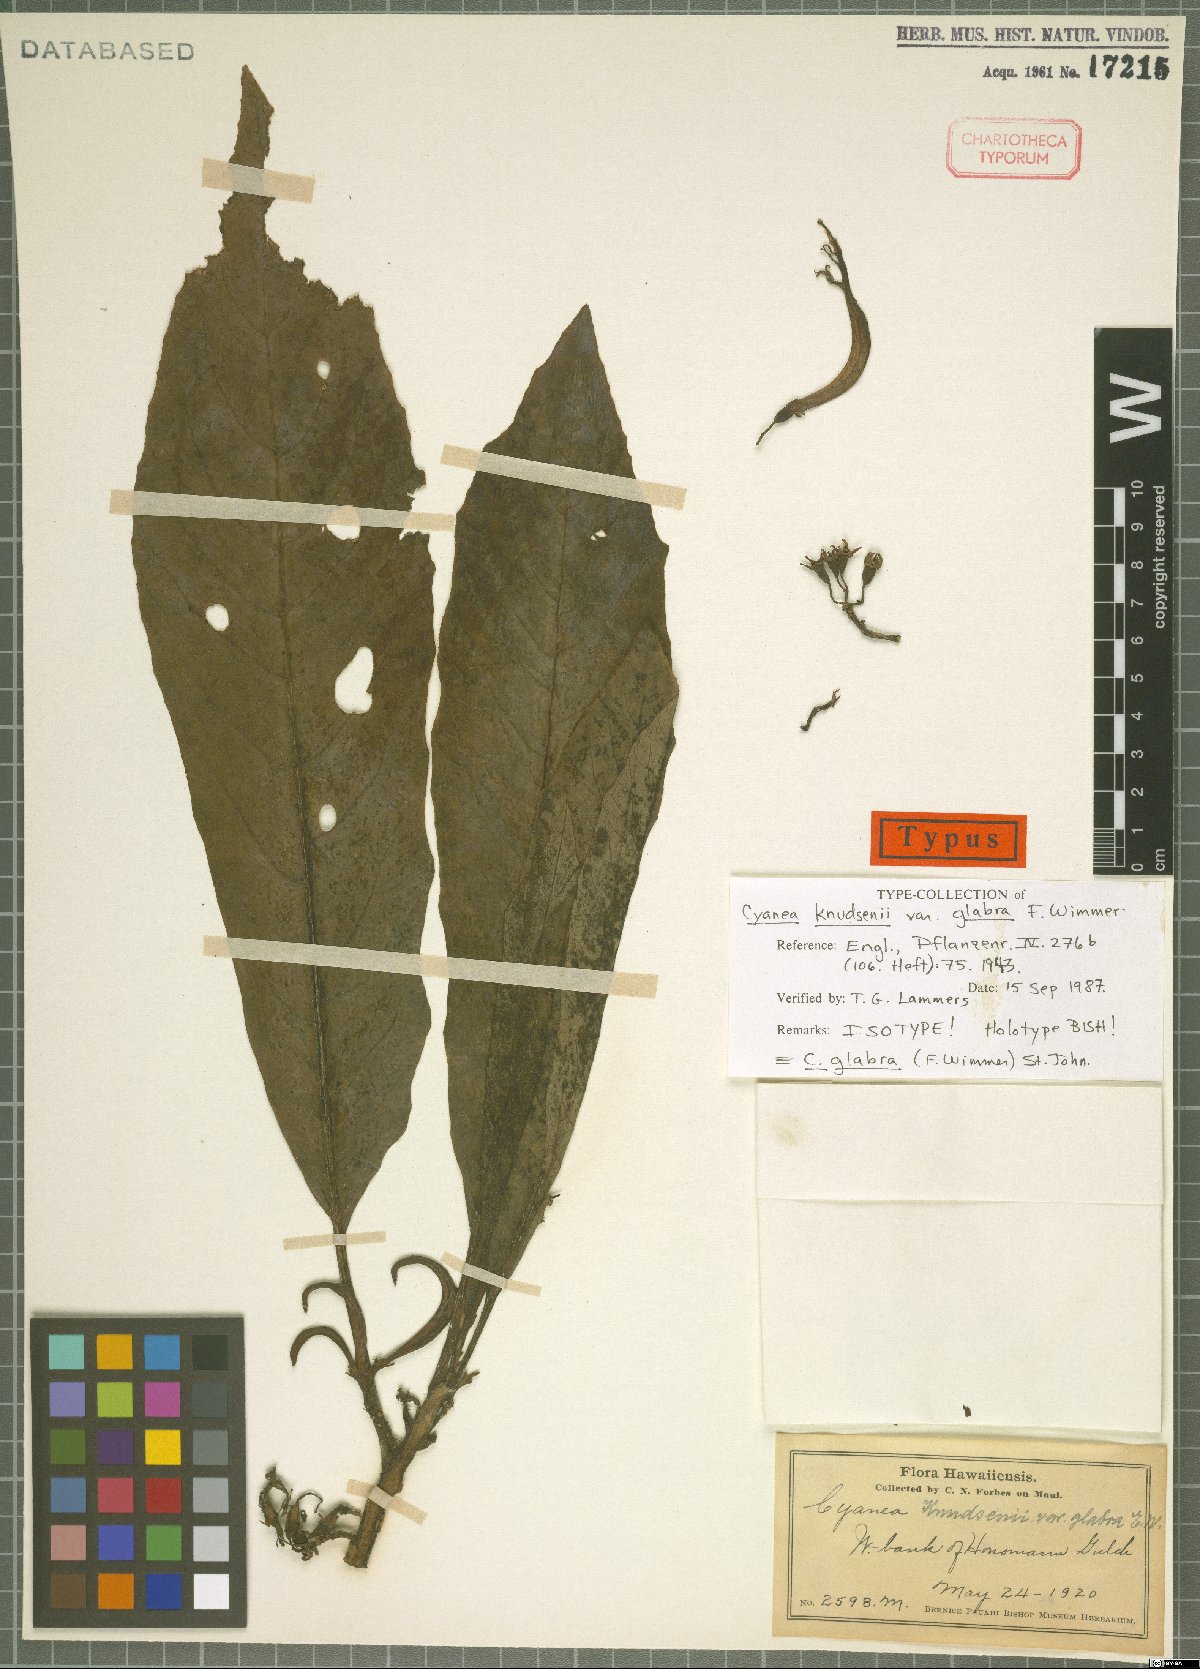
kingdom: Plantae
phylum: Tracheophyta
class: Magnoliopsida
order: Asterales
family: Campanulaceae
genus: Cyanea
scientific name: Cyanea glabra
